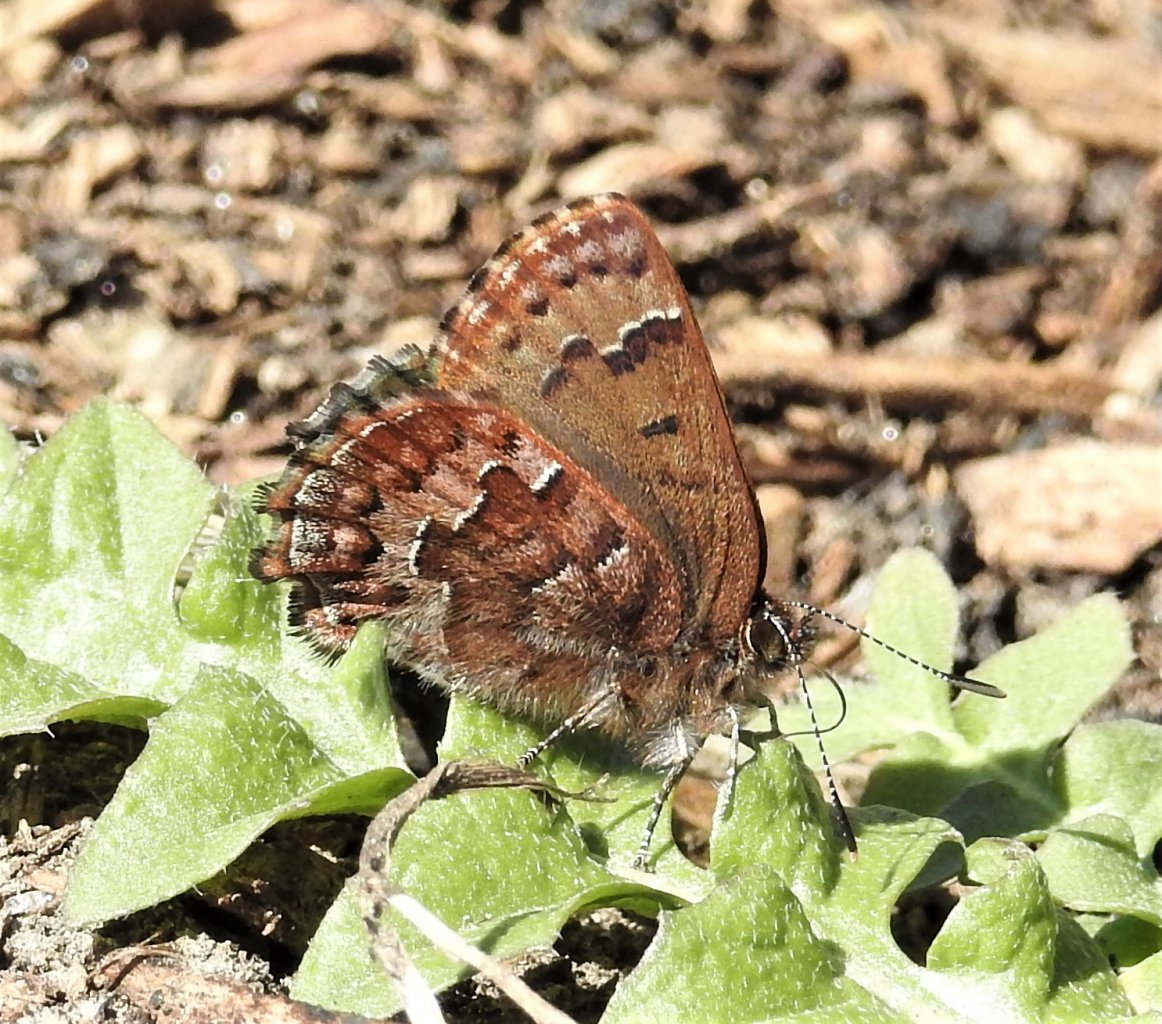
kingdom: Animalia
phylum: Arthropoda
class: Insecta
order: Lepidoptera
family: Lycaenidae
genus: Incisalia
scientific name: Incisalia niphon
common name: Eastern Pine Elfin
